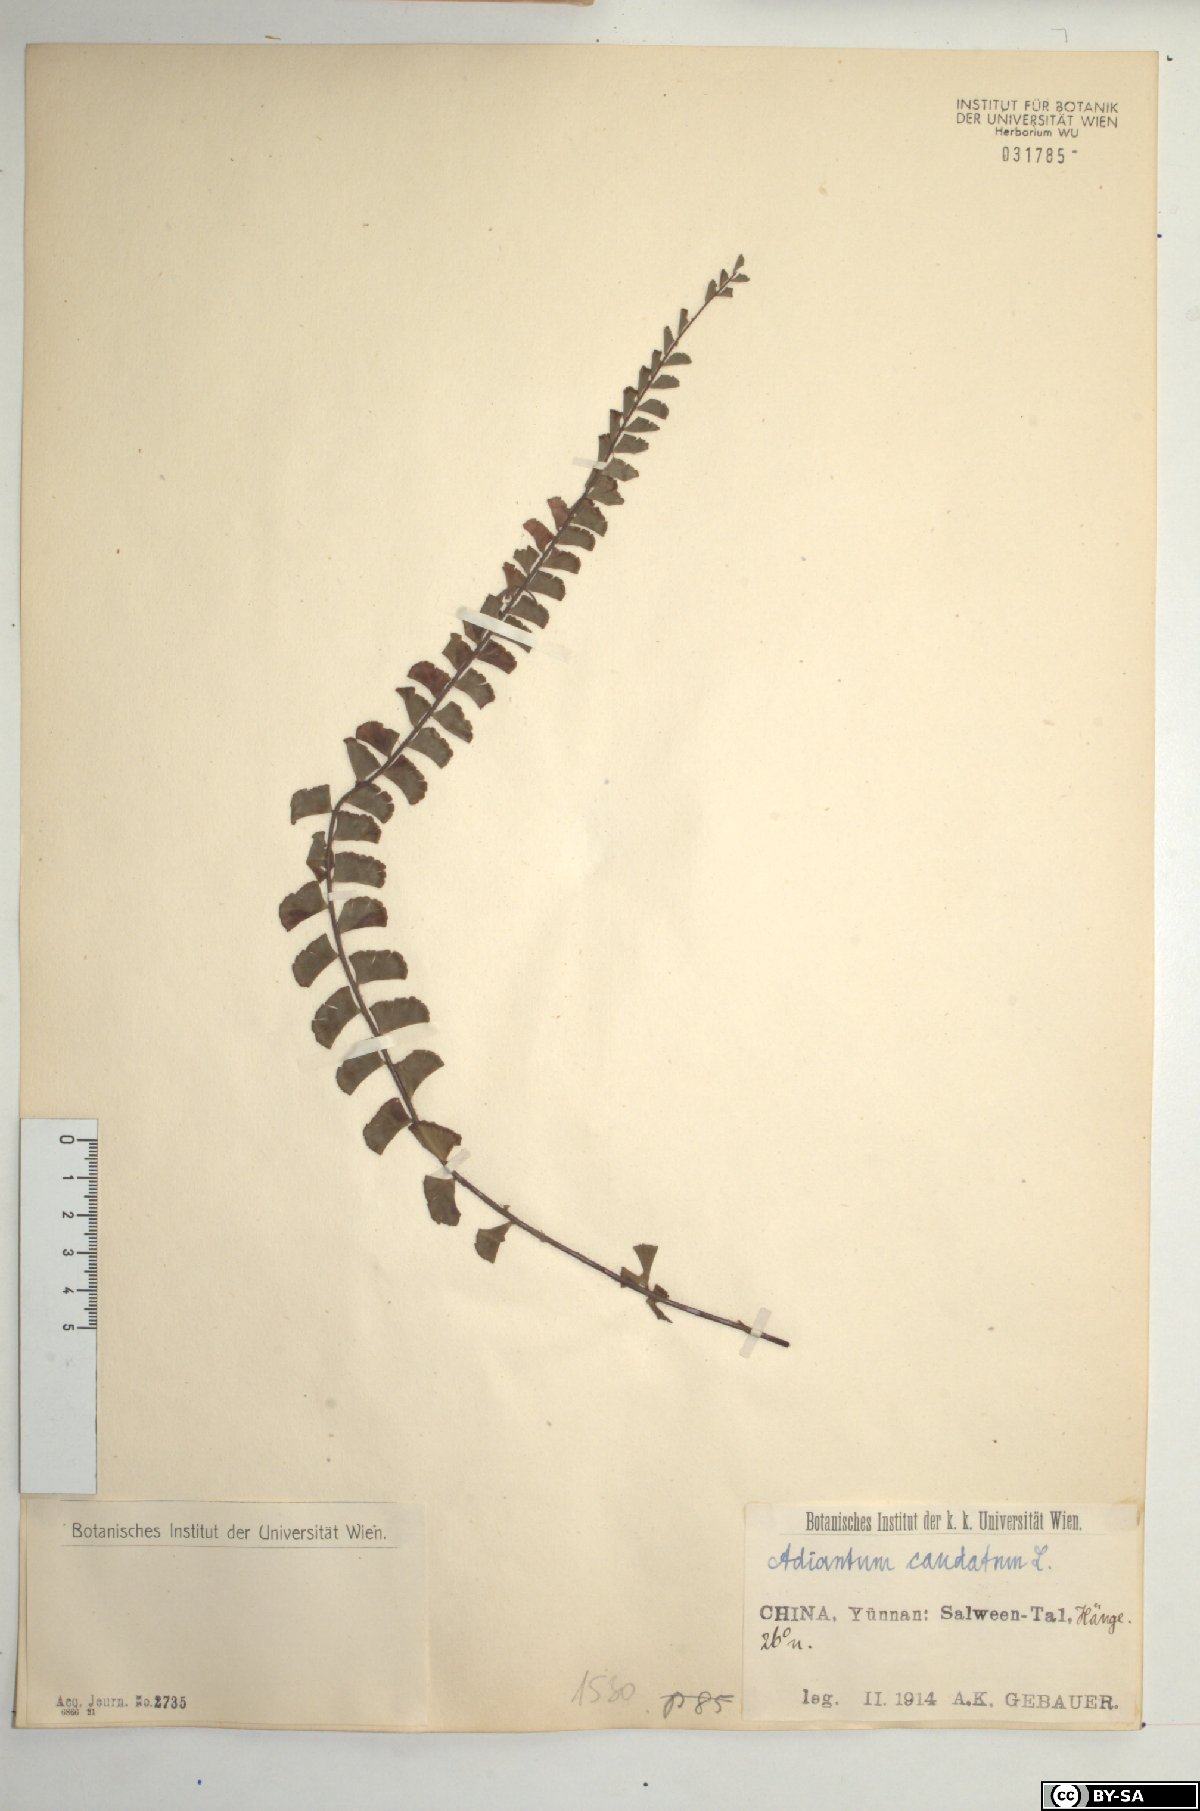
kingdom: Plantae
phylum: Tracheophyta
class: Polypodiopsida
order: Polypodiales
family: Pteridaceae
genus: Adiantum
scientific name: Adiantum caudatum
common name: Tailed maidenhair
